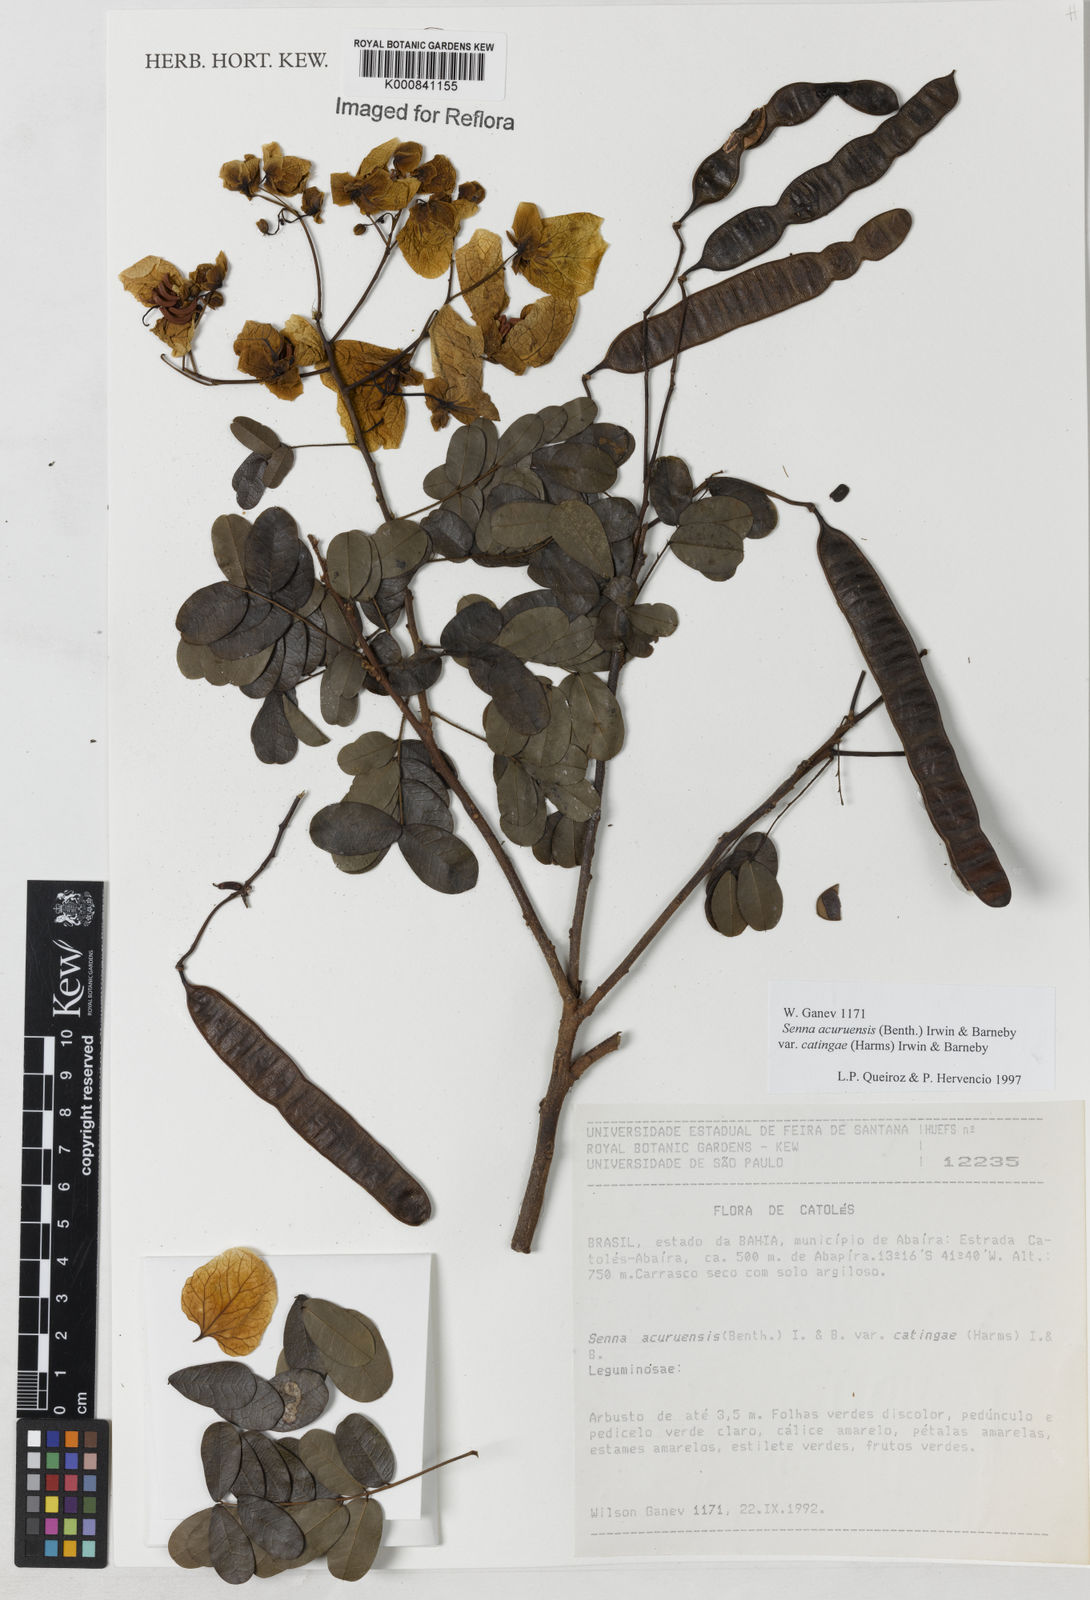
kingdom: Plantae
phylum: Tracheophyta
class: Magnoliopsida
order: Fabales
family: Fabaceae
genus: Senna
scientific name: Senna catingae
